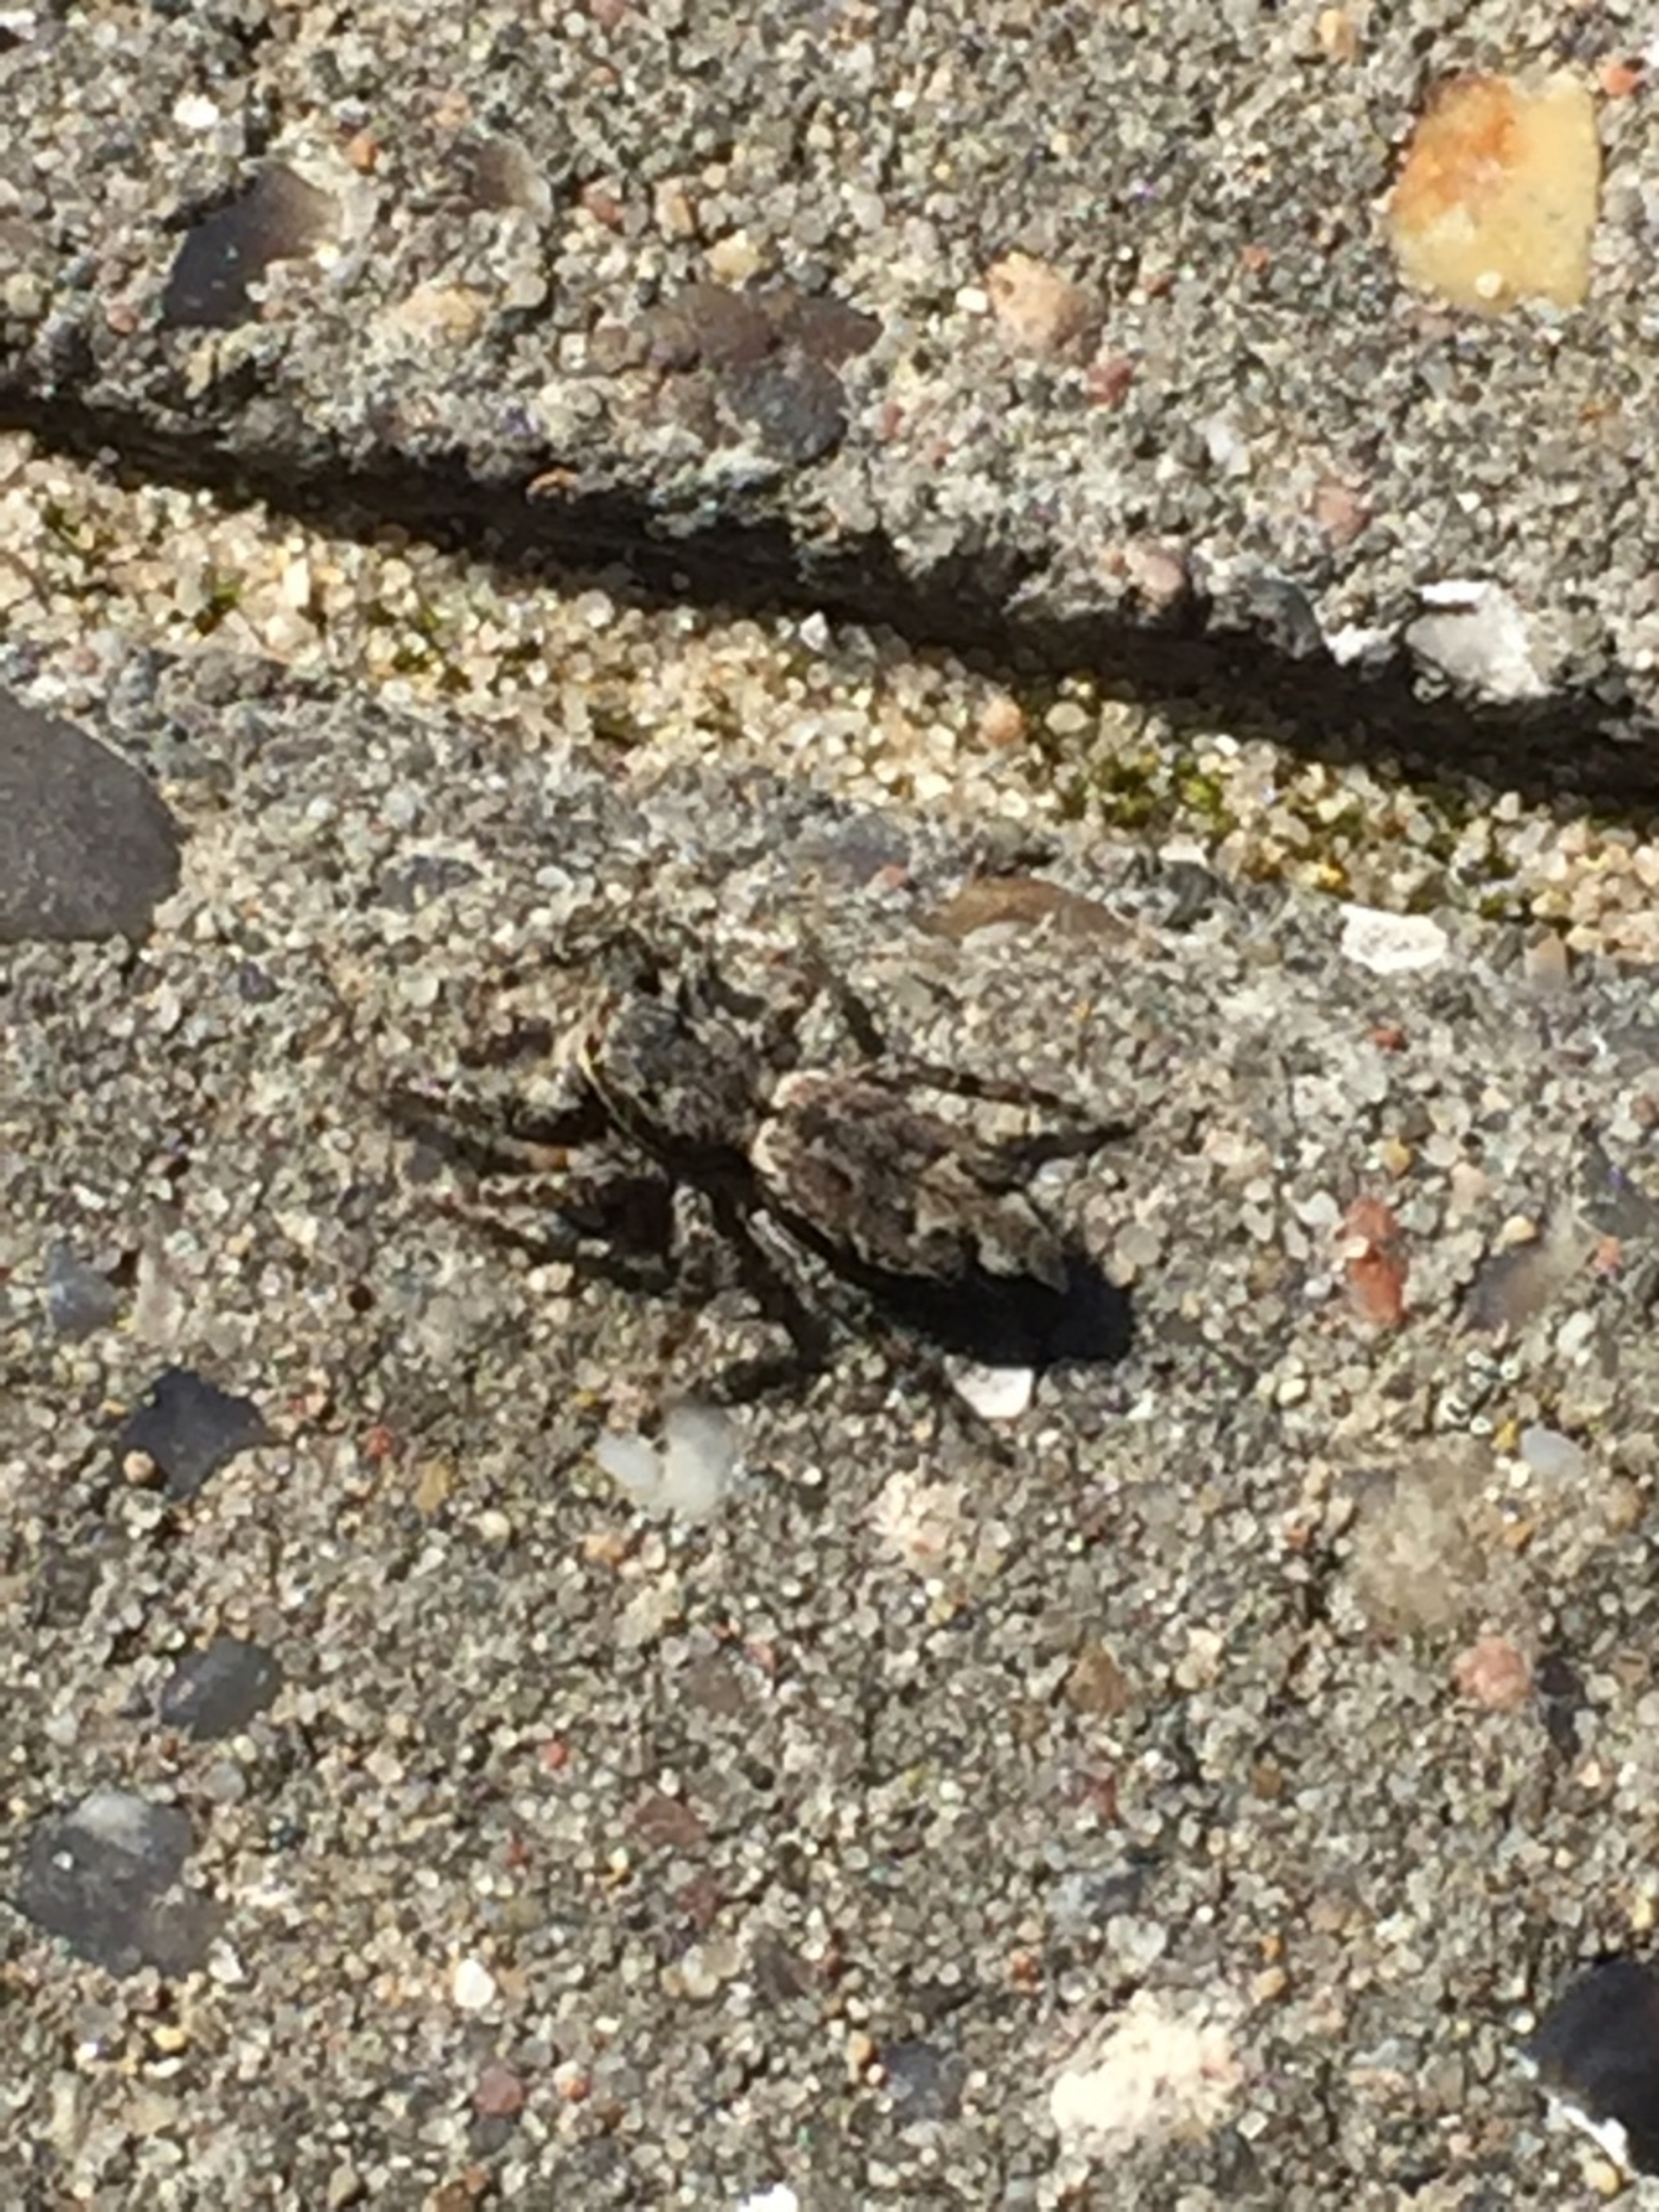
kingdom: Animalia
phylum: Arthropoda
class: Arachnida
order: Araneae
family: Salticidae
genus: Marpissa
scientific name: Marpissa muscosa
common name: Stor springedderkop
